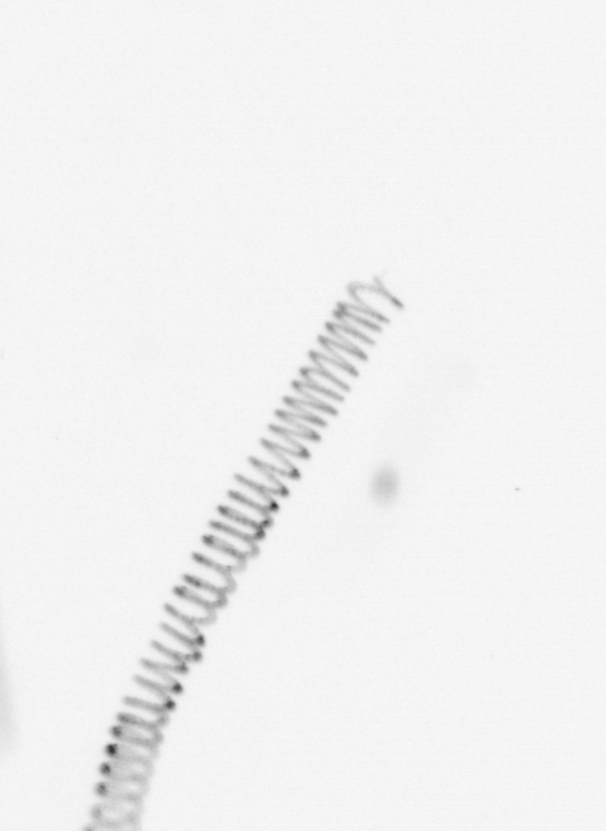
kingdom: Chromista
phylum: Ochrophyta
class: Bacillariophyceae
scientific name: Bacillariophyceae
